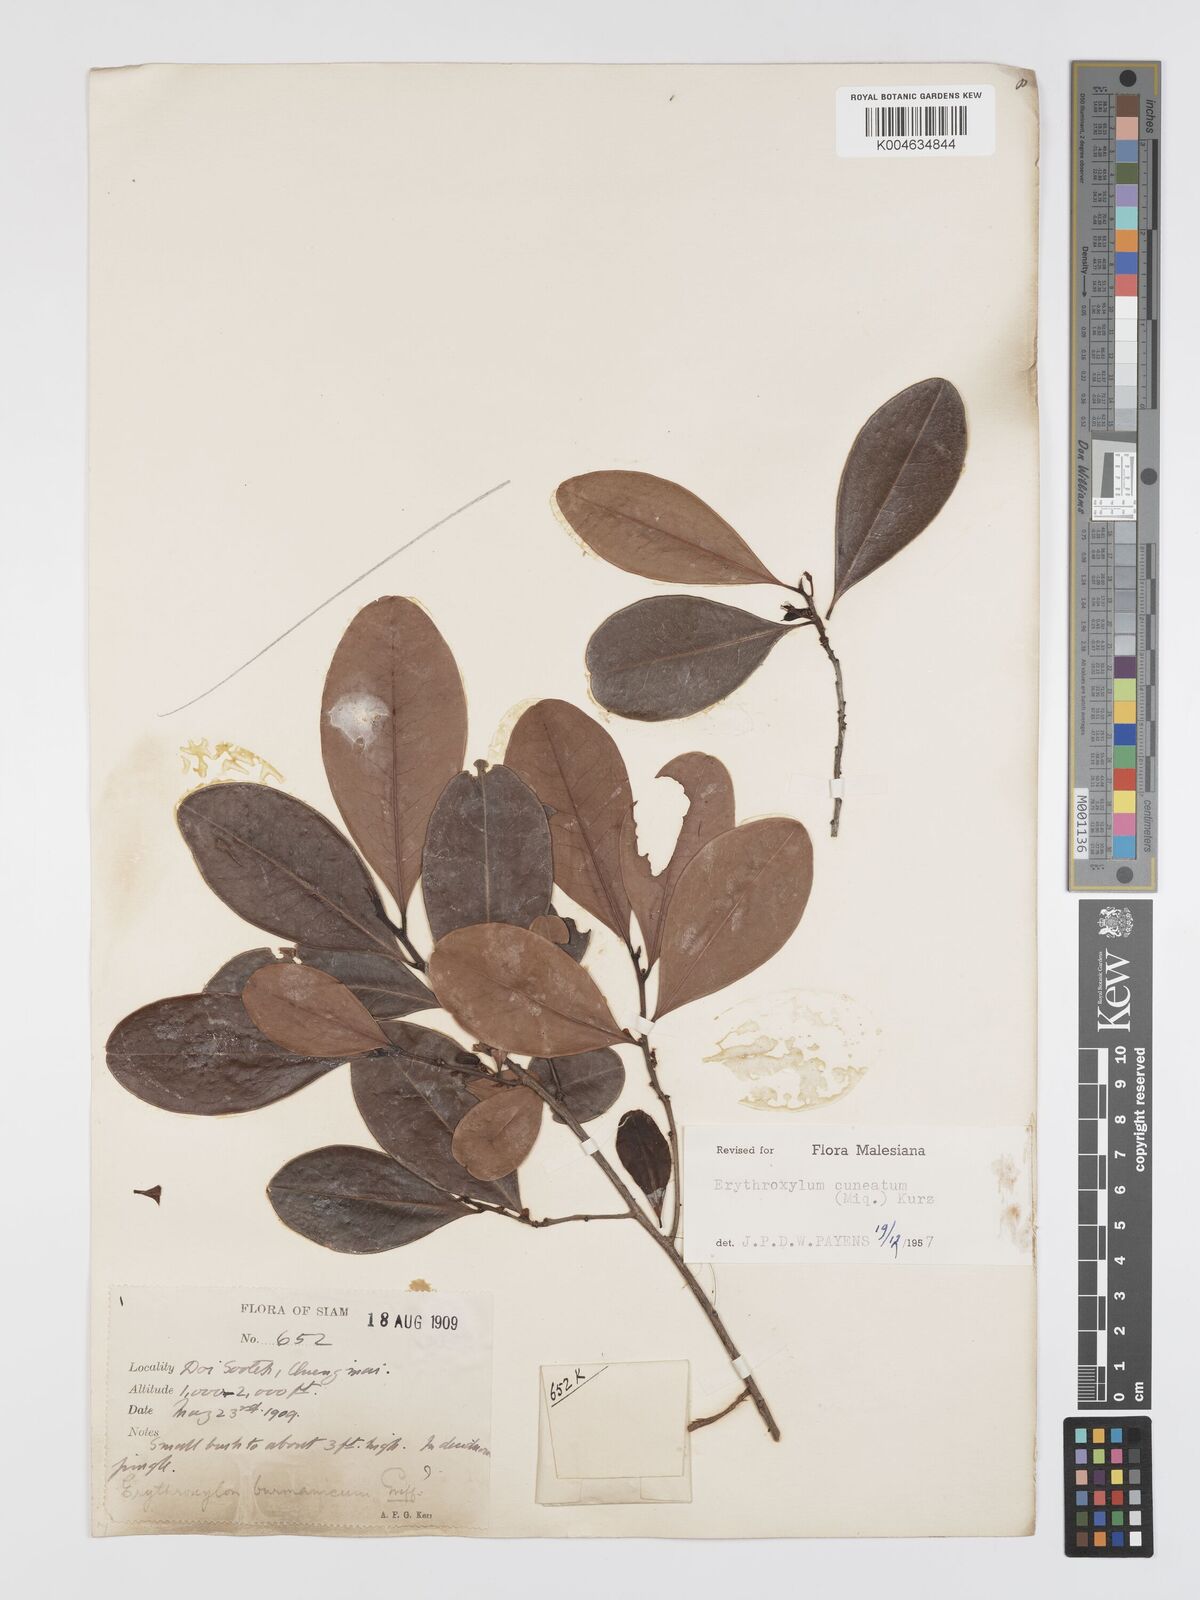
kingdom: Plantae
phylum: Tracheophyta
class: Magnoliopsida
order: Malpighiales
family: Erythroxylaceae
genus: Erythroxylum
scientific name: Erythroxylum cuneatum
